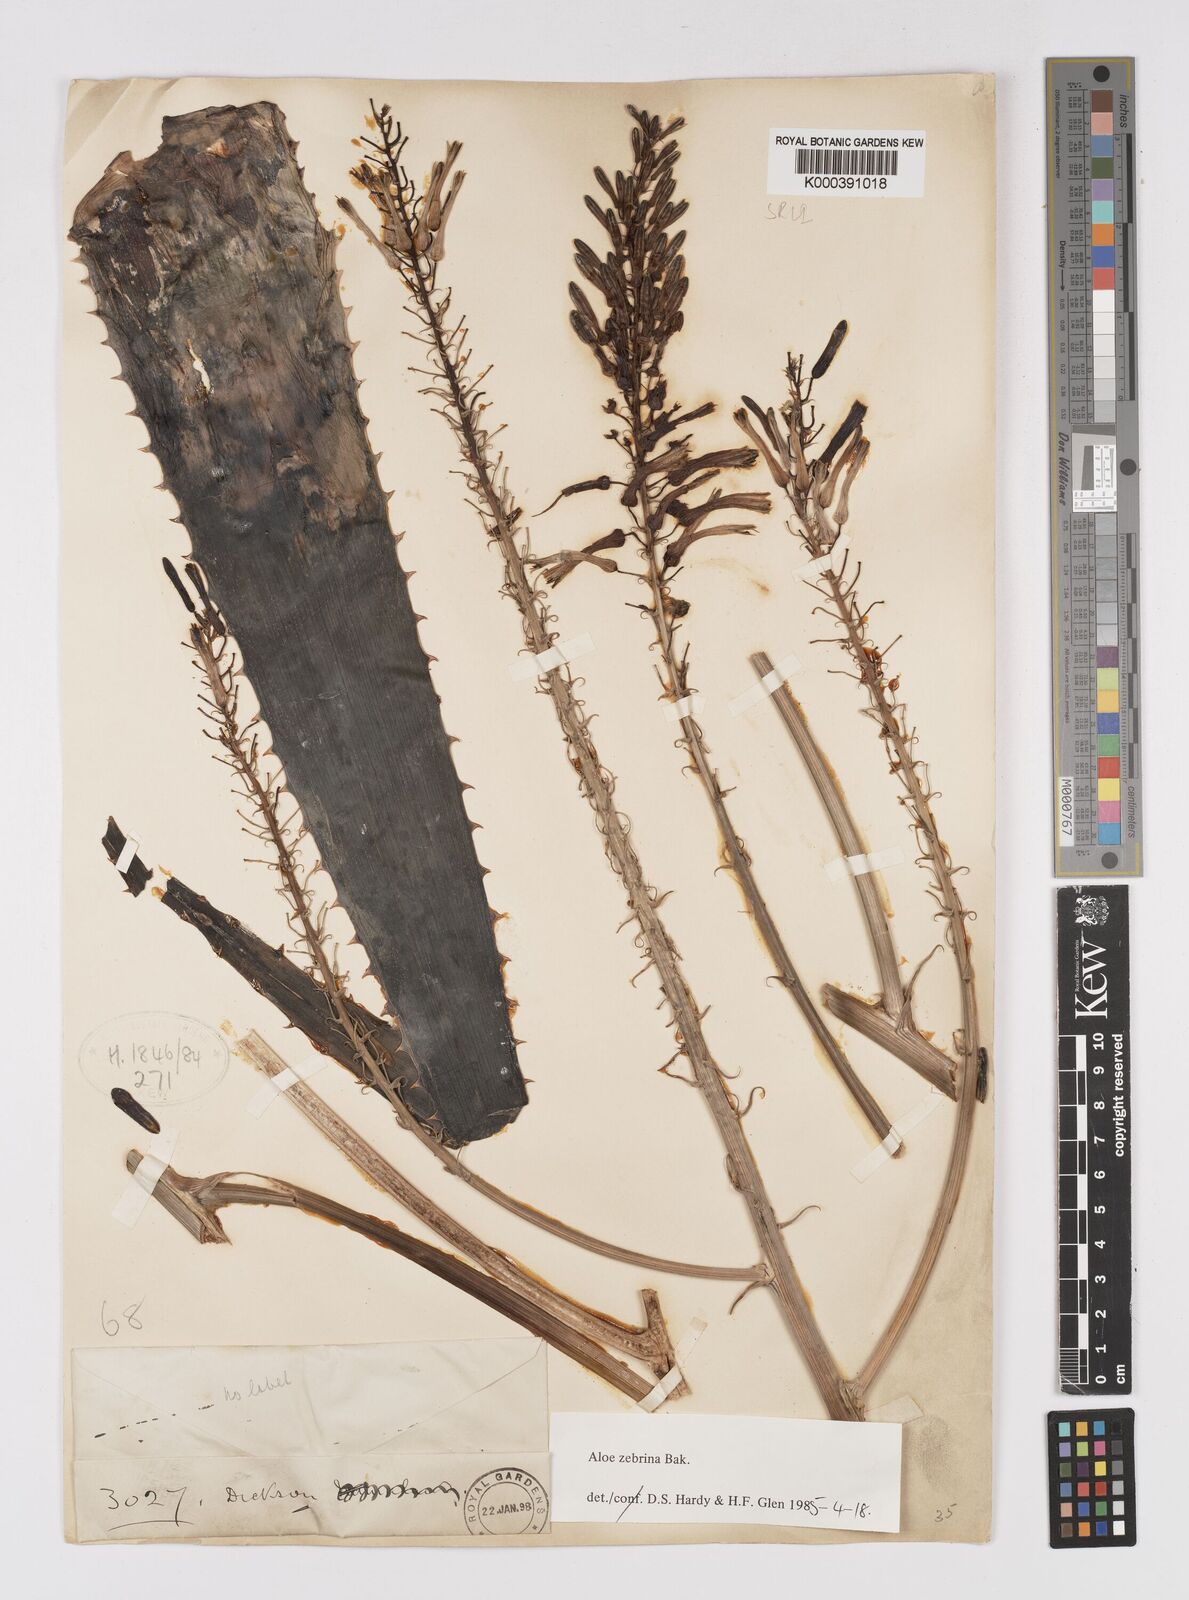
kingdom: Plantae
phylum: Tracheophyta
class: Liliopsida
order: Asparagales
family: Asphodelaceae
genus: Aloe
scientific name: Aloe zebrina
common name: Zebra-leaf aloe
